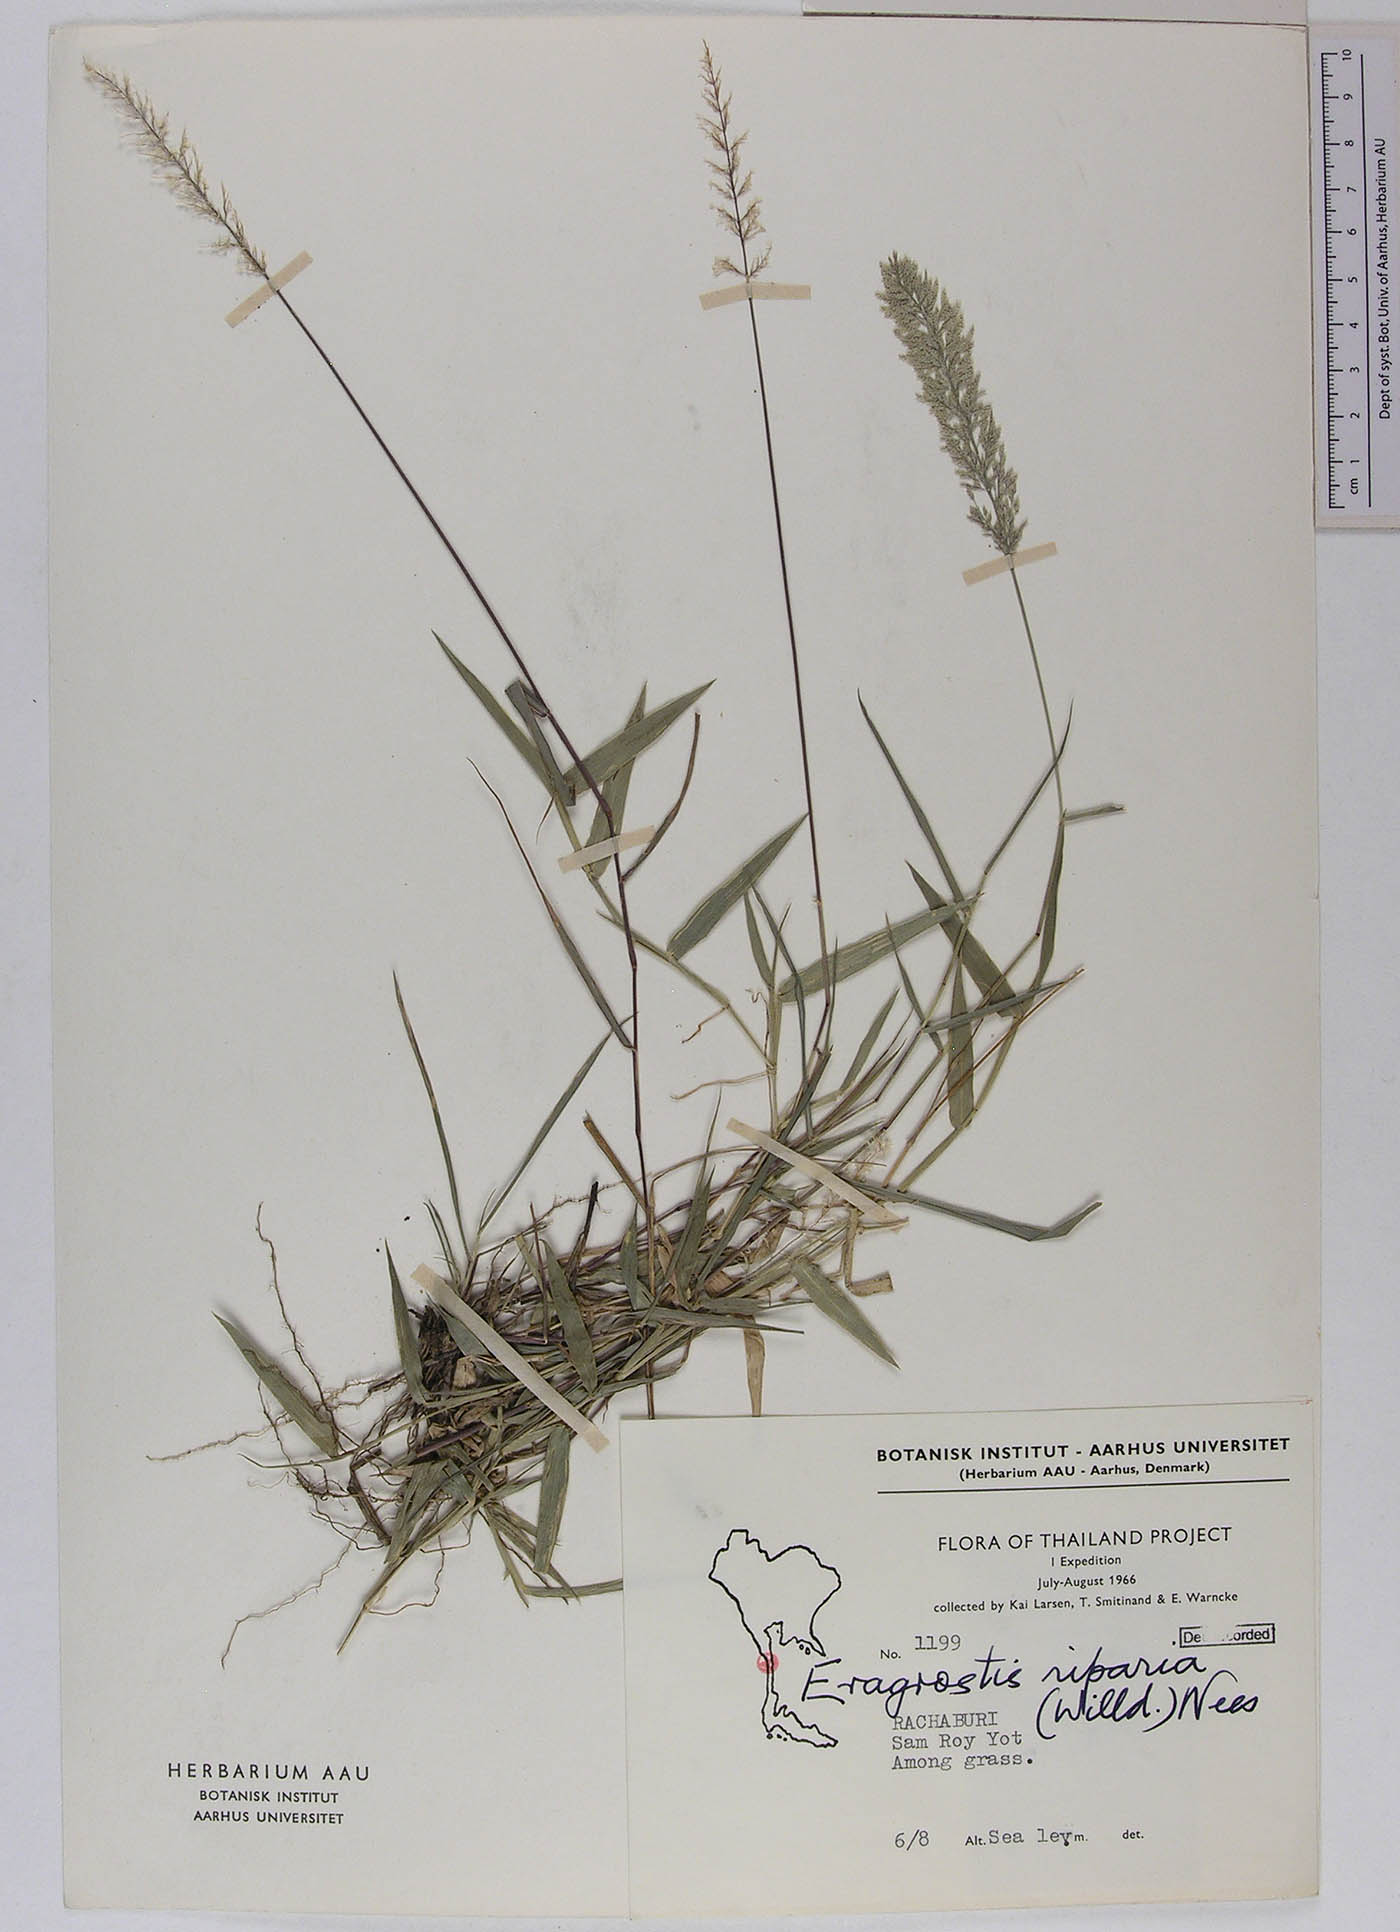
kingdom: Plantae
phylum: Tracheophyta
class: Liliopsida
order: Poales
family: Poaceae
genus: Eragrostis
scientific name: Eragrostis riparia
